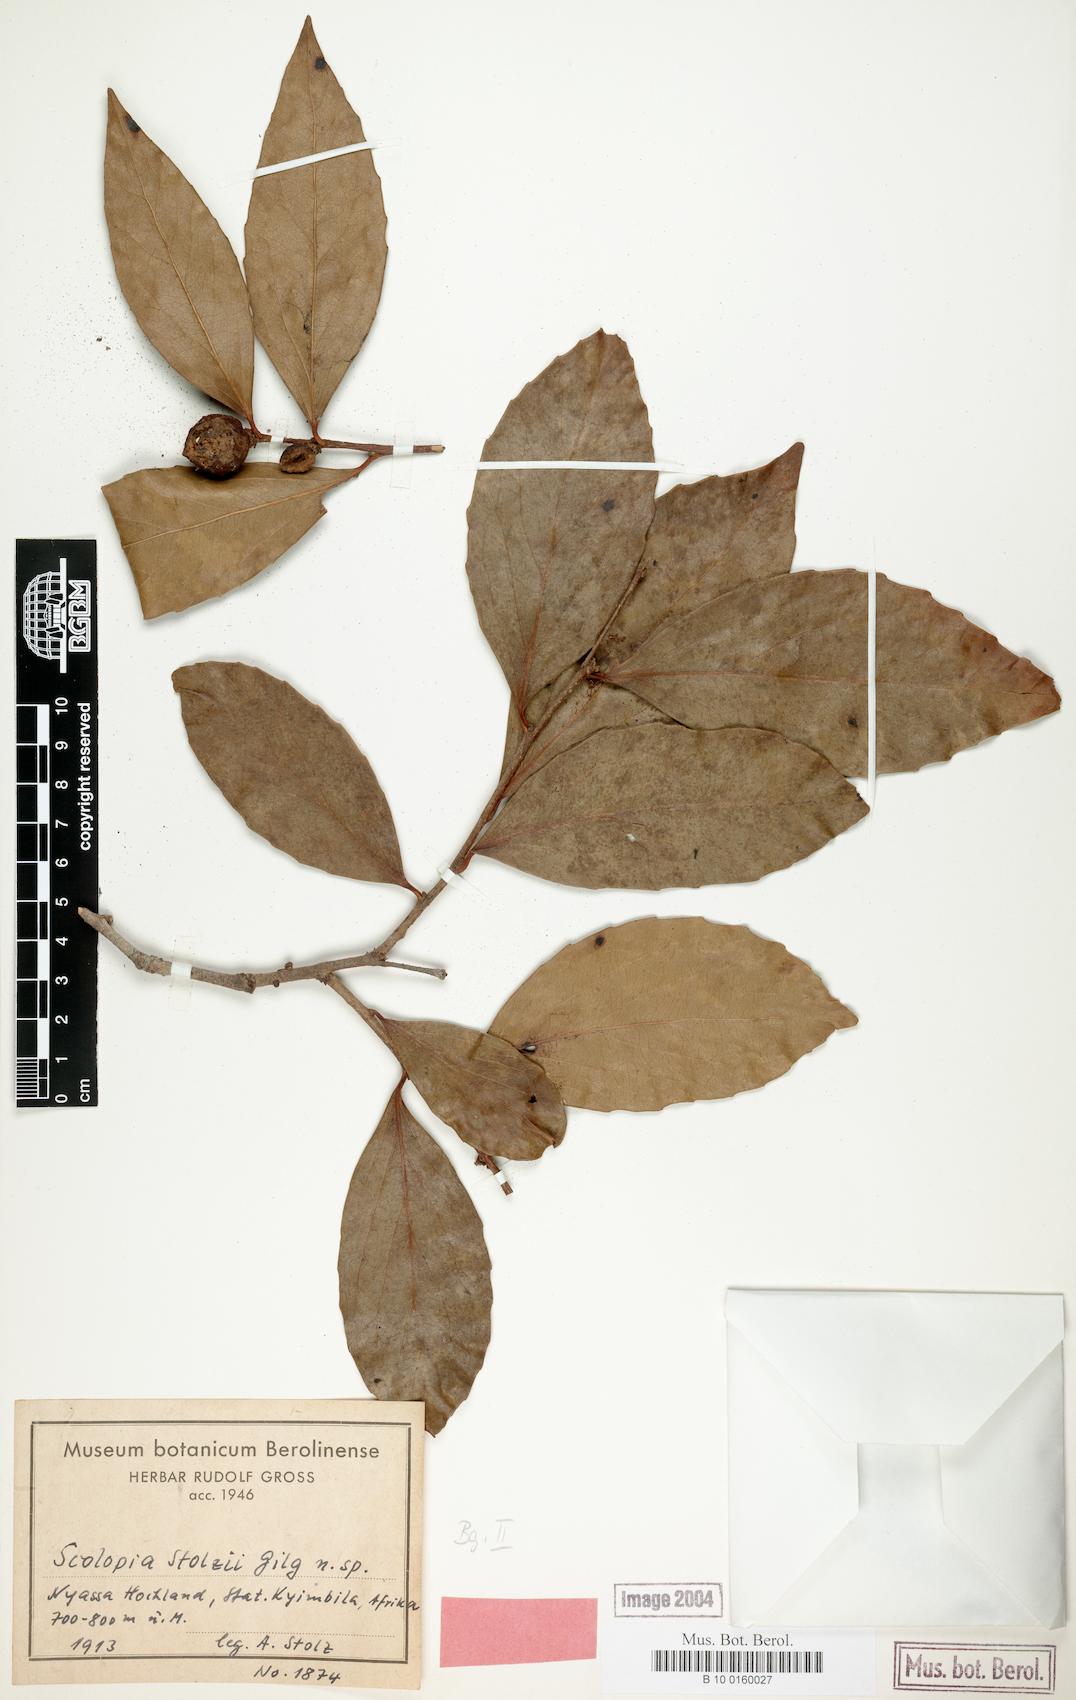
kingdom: Plantae
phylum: Tracheophyta
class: Magnoliopsida
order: Malpighiales
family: Salicaceae
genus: Scolopia
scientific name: Scolopia stolzii
